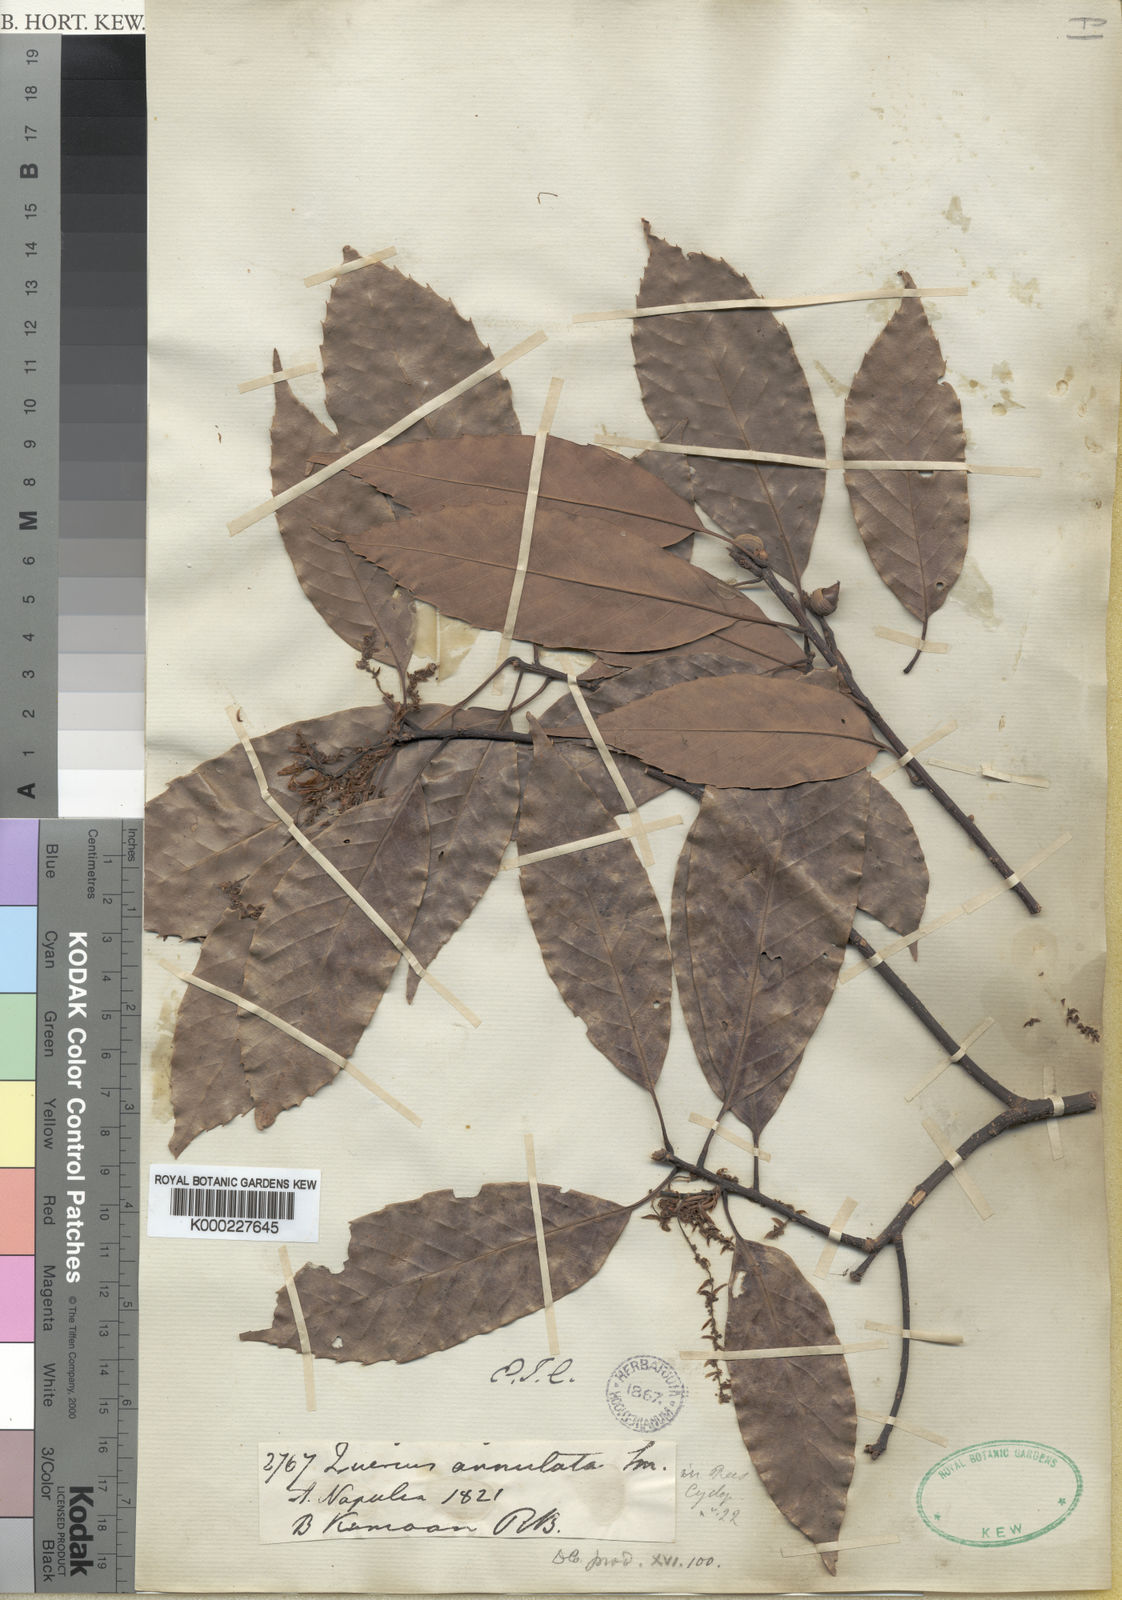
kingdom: Plantae
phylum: Tracheophyta
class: Magnoliopsida
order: Fagales
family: Fagaceae
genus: Quercus
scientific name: Quercus glauca
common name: Ring-cup oak
